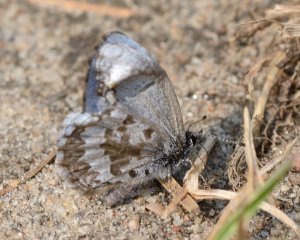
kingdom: Animalia
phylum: Arthropoda
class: Insecta
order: Lepidoptera
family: Lycaenidae
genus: Celastrina
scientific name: Celastrina lucia
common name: Northern Spring Azure
